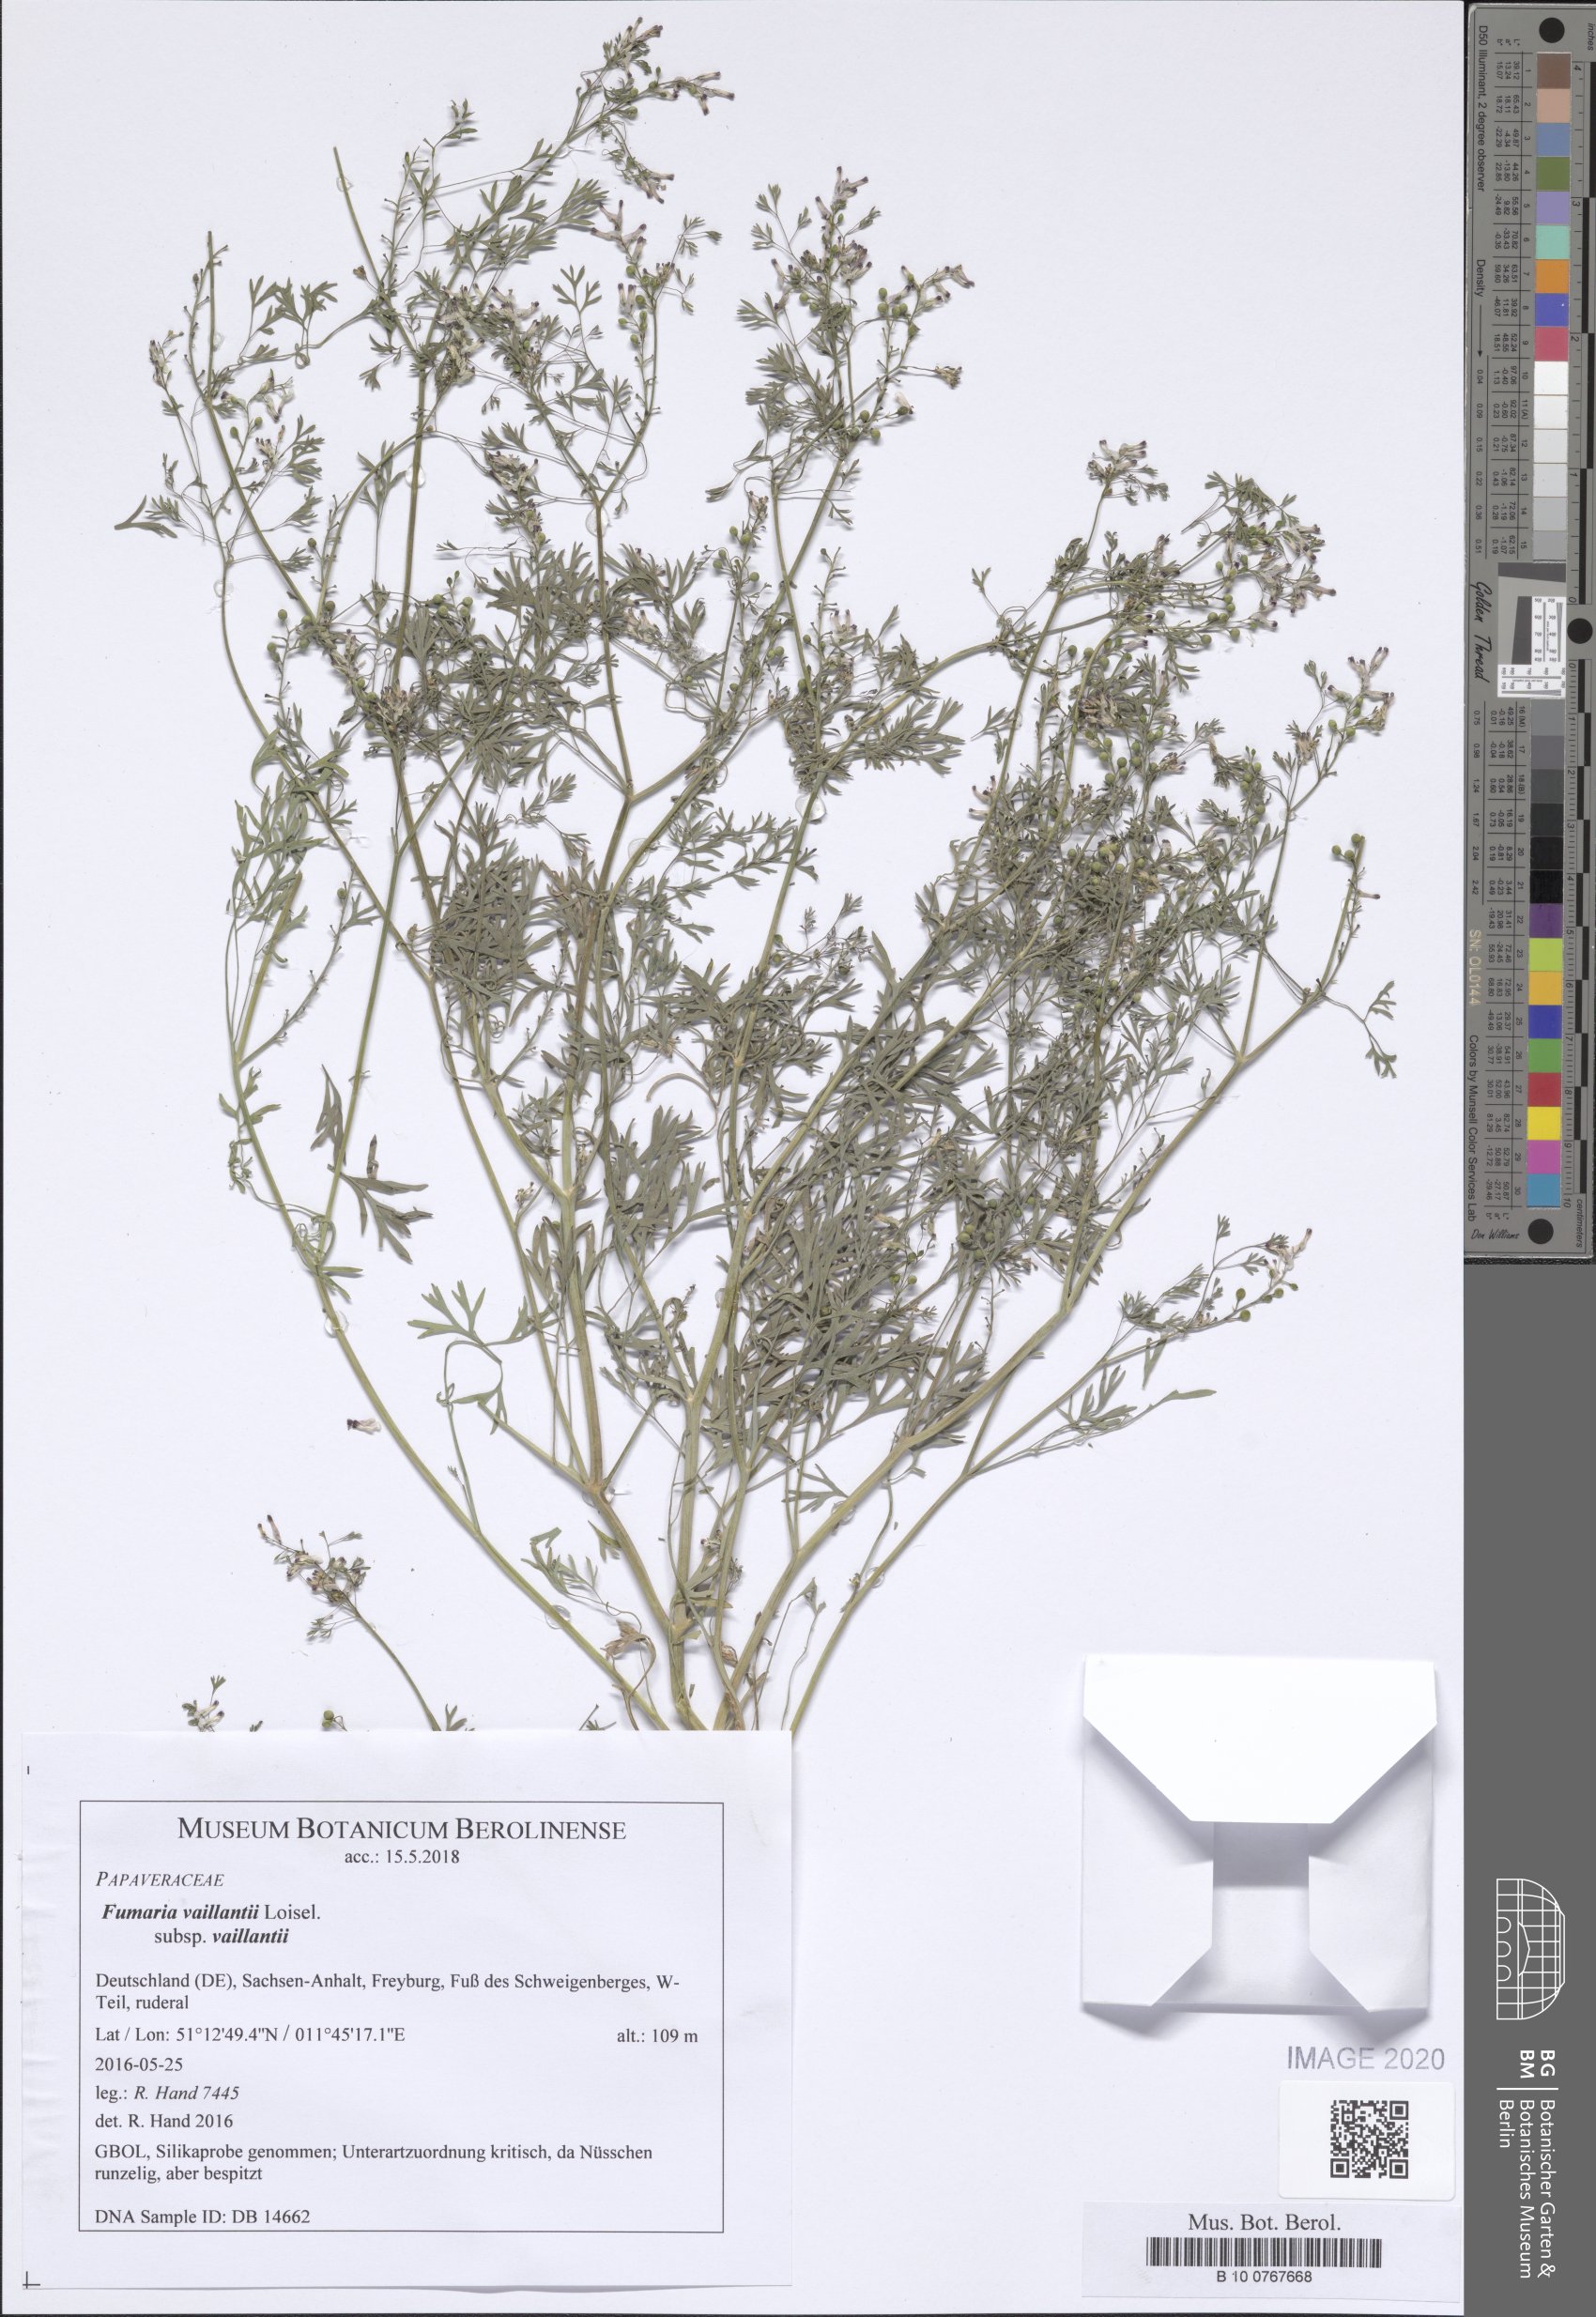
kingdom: Plantae
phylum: Tracheophyta
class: Magnoliopsida
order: Ranunculales
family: Papaveraceae
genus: Fumaria
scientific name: Fumaria vaillantii
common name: Few-flowered fumitory
